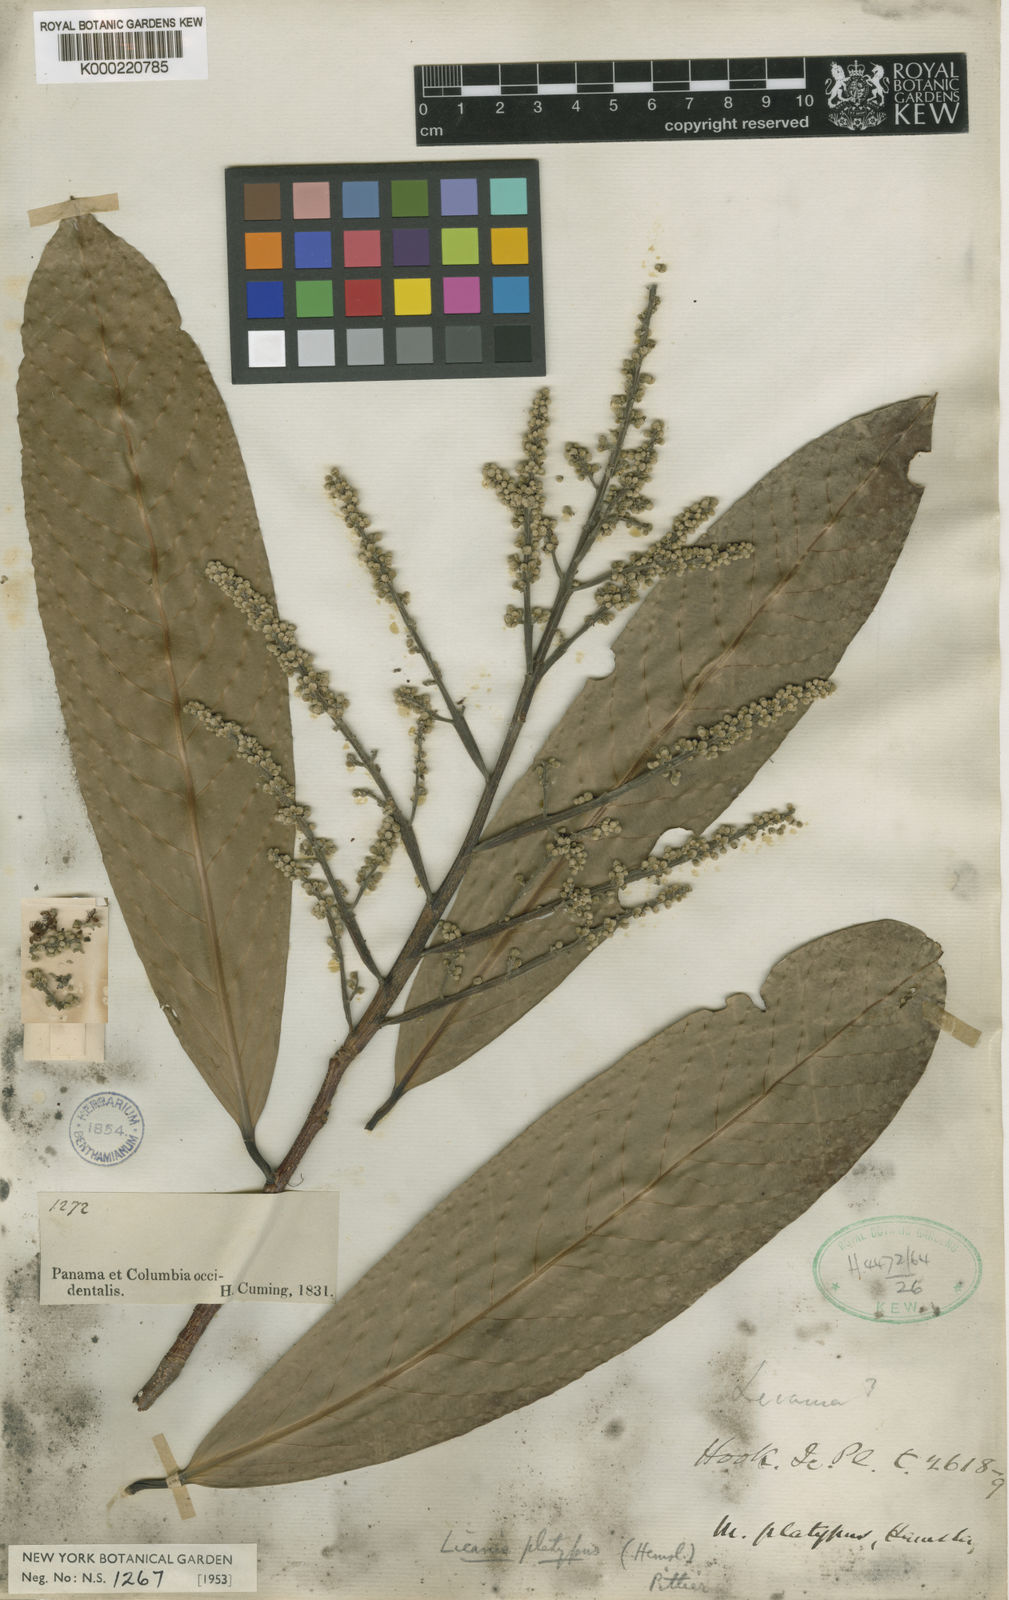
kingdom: Plantae
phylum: Tracheophyta
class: Magnoliopsida
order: Malpighiales
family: Chrysobalanaceae
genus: Moquilea
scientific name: Moquilea platypus
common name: Sansapote
